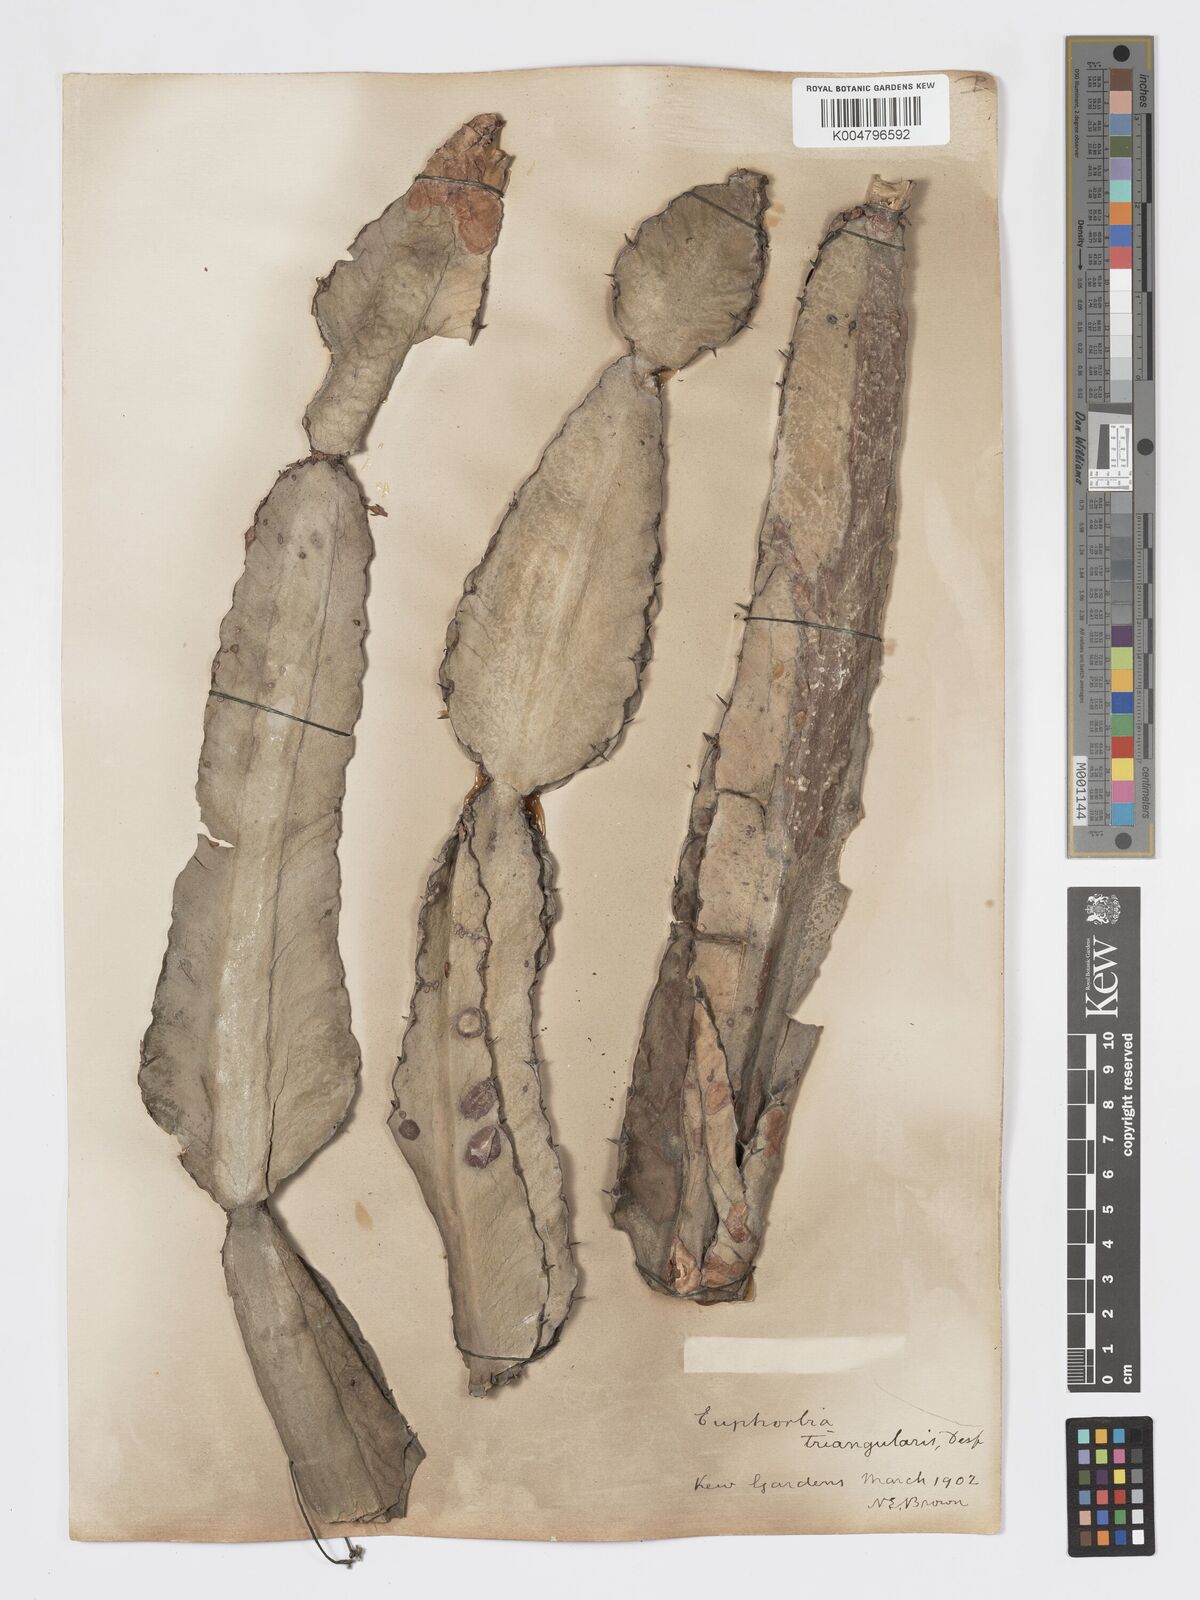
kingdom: Plantae
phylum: Tracheophyta
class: Magnoliopsida
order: Malpighiales
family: Euphorbiaceae
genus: Euphorbia
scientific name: Euphorbia triangularis
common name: Chandelier tree
